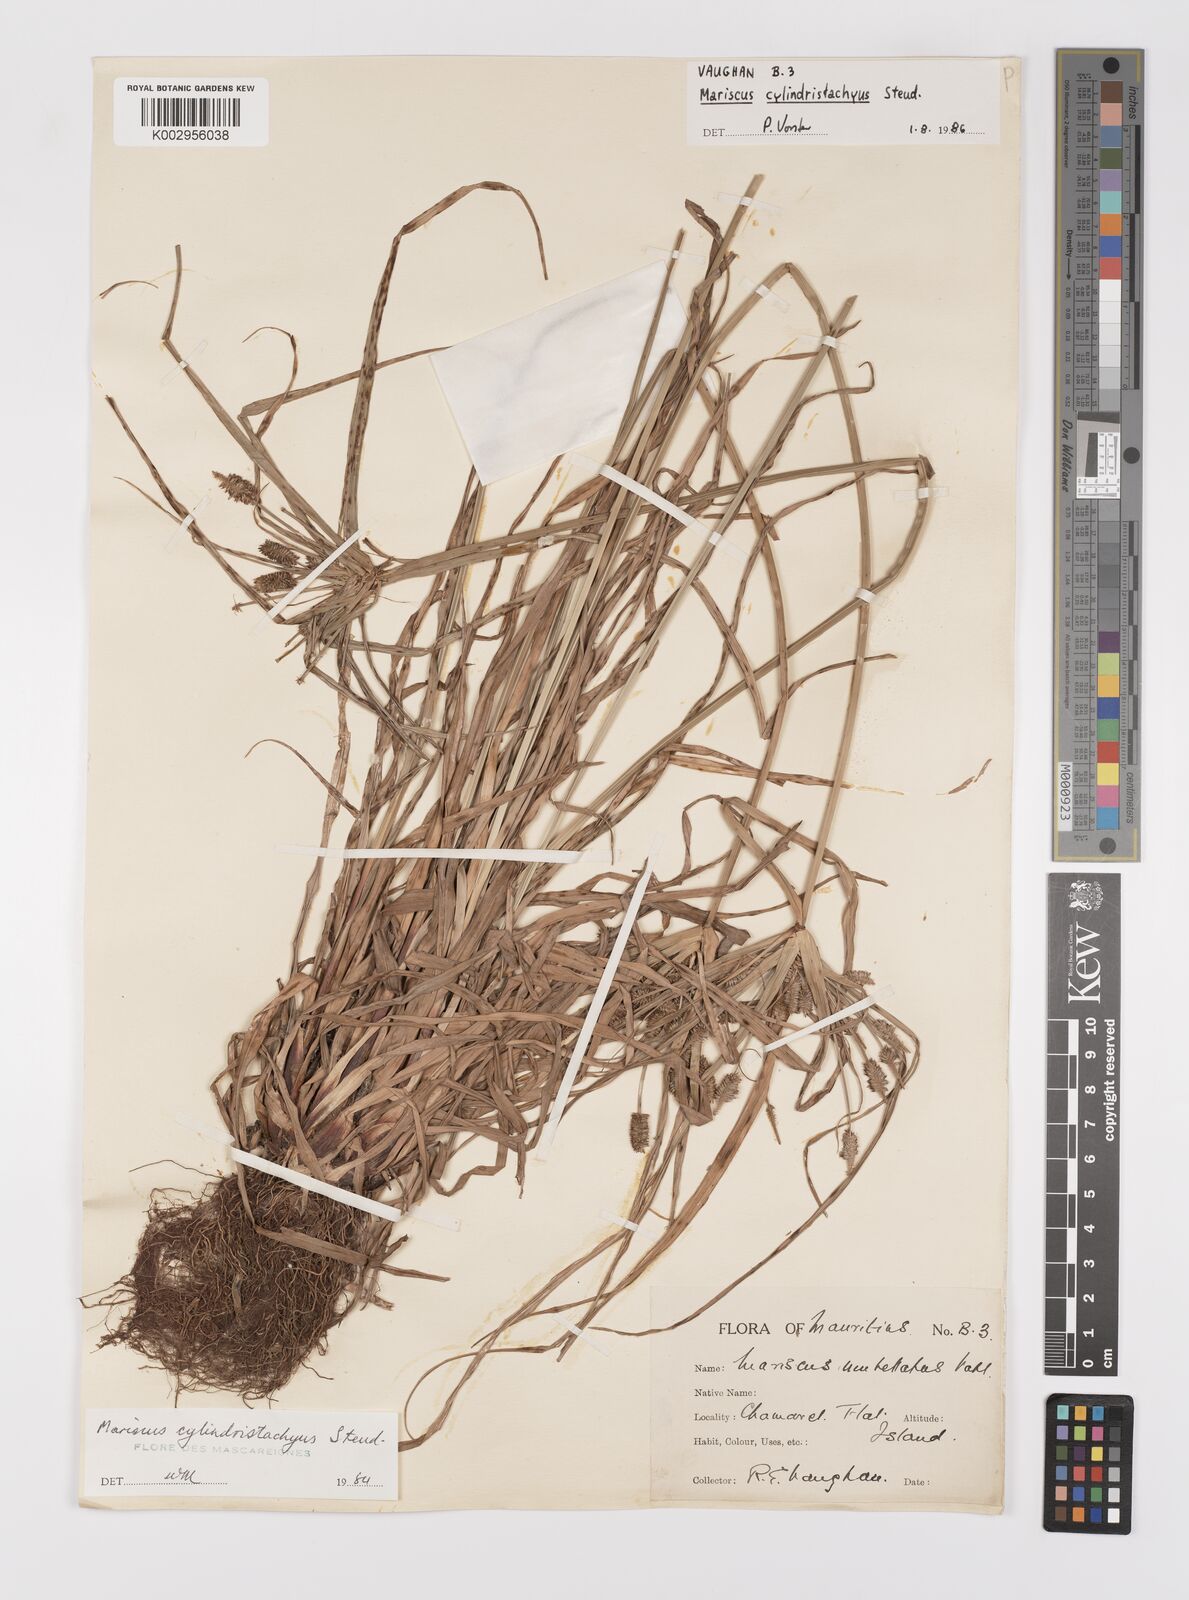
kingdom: Plantae
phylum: Tracheophyta
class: Liliopsida
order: Poales
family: Cyperaceae
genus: Cyperus
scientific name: Cyperus cyperoides
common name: Pacific island flat sedge
